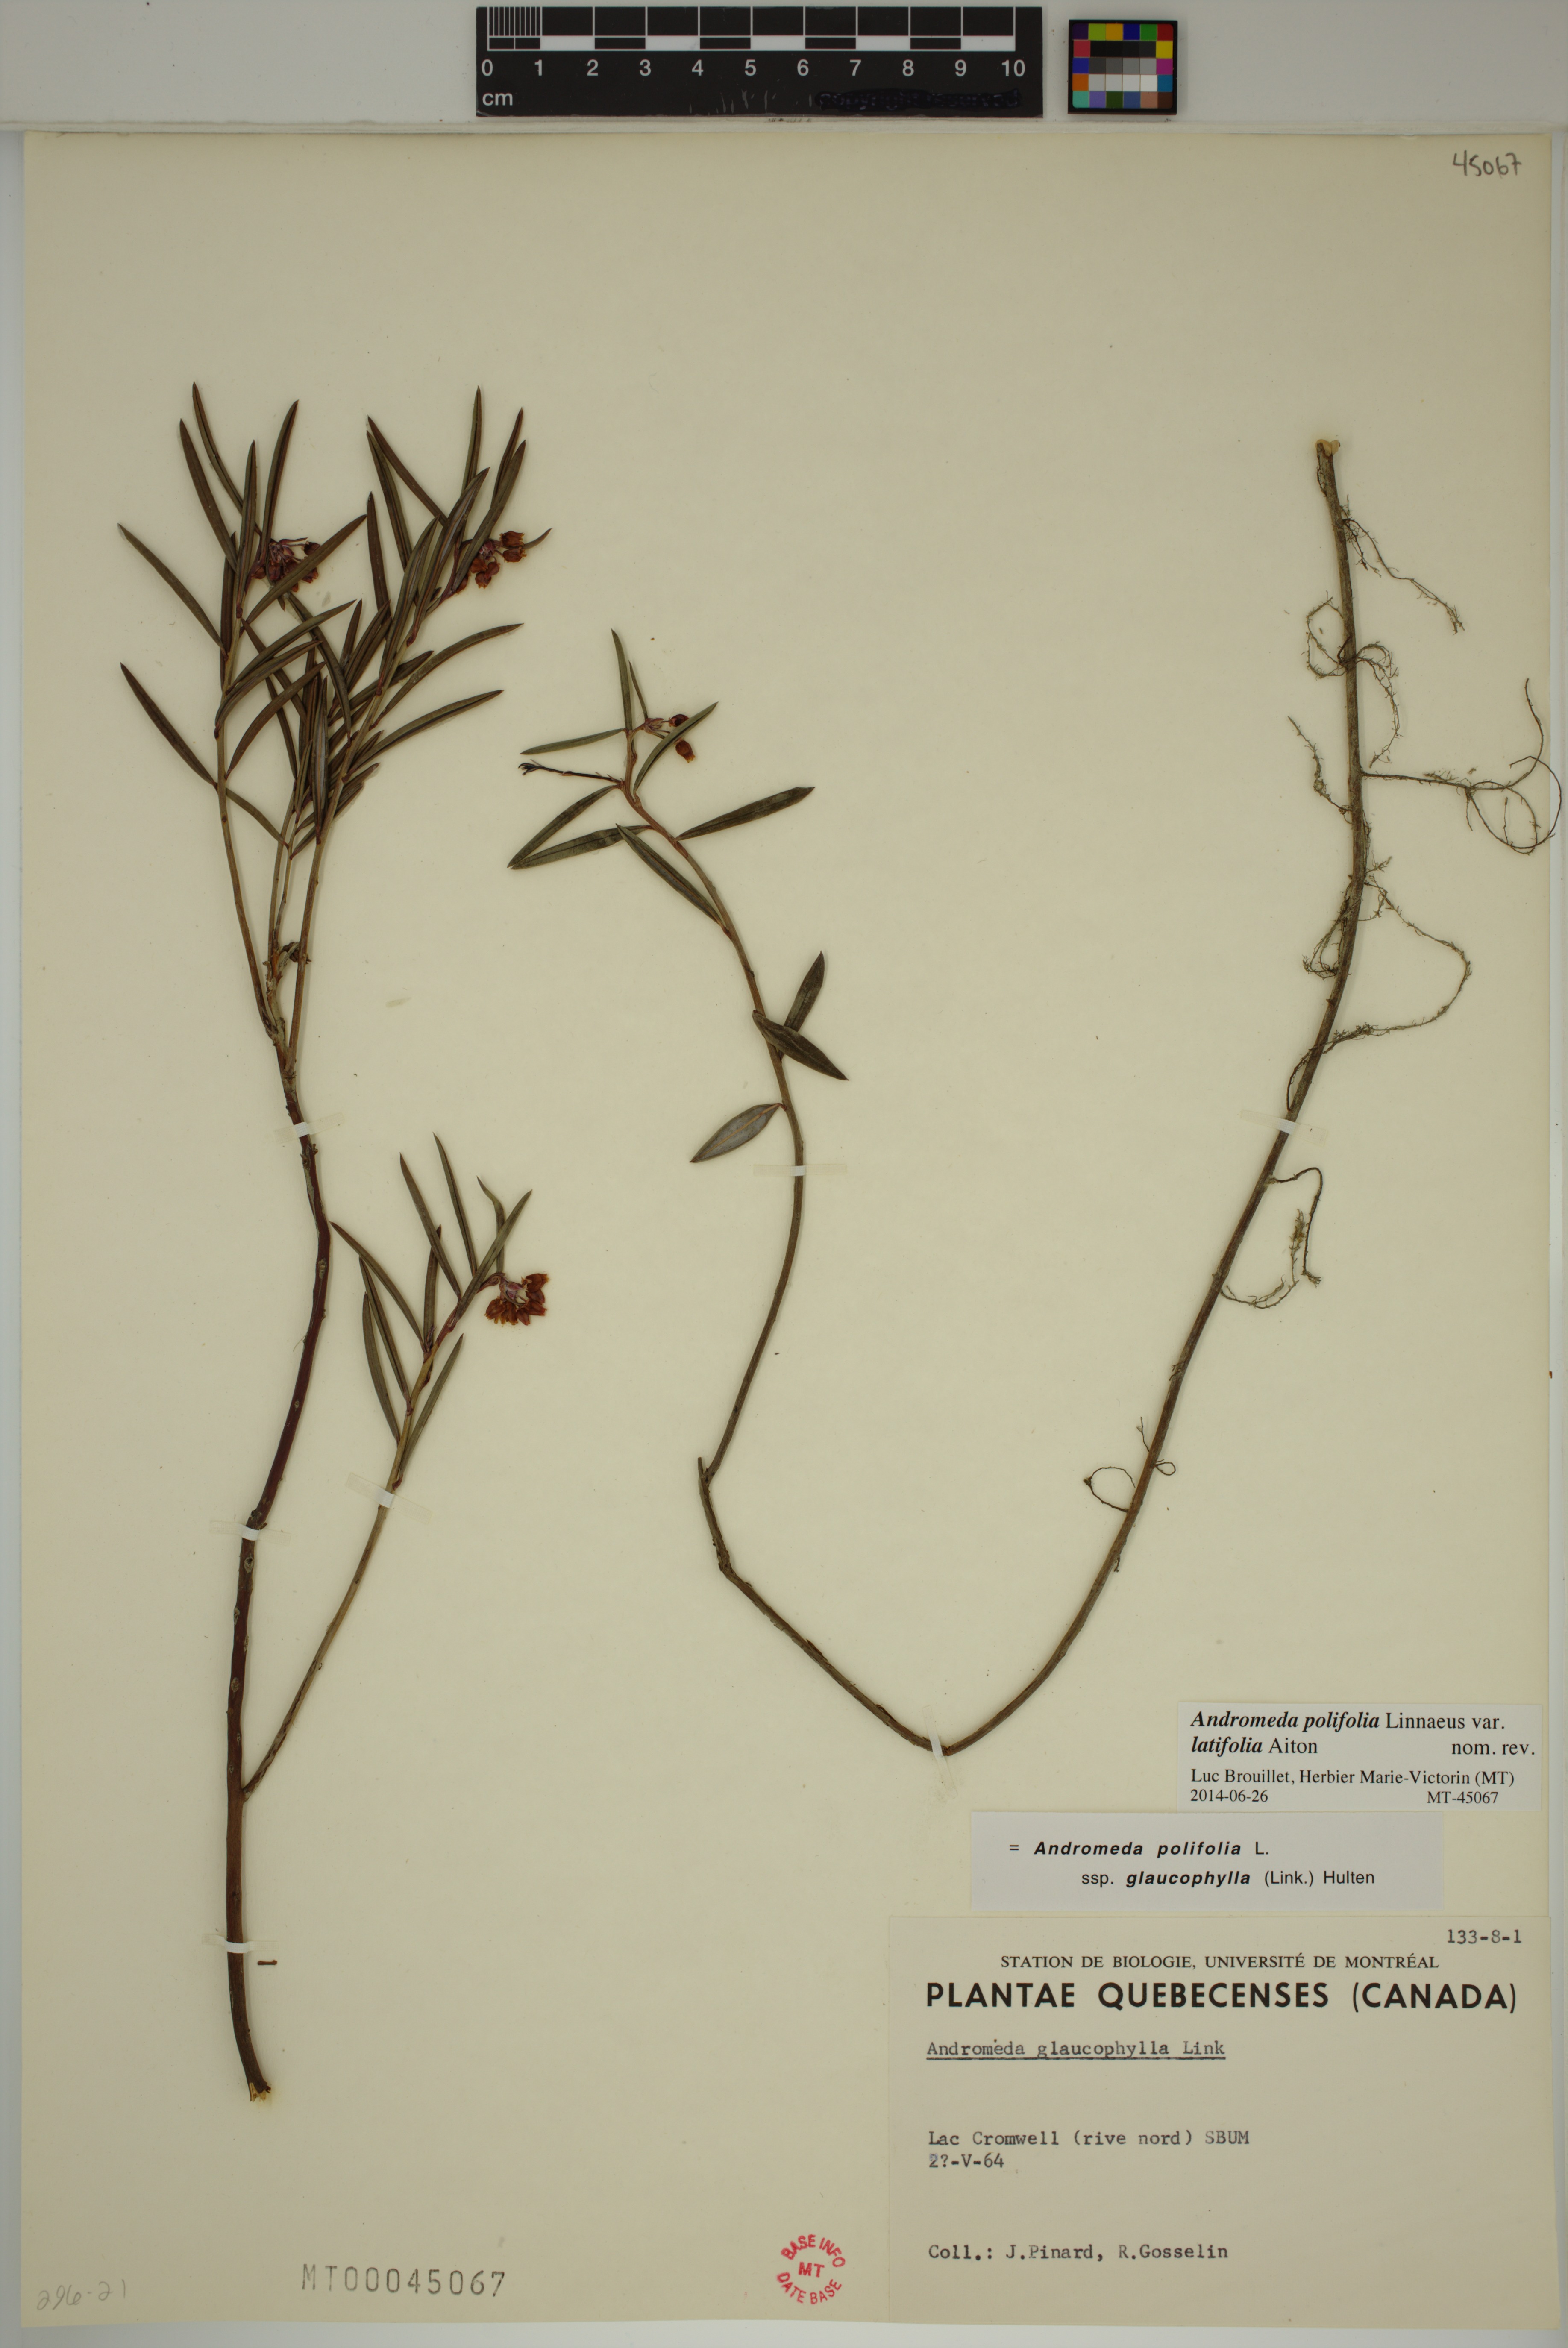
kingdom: Plantae
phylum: Tracheophyta
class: Magnoliopsida
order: Ericales
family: Ericaceae
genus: Andromeda
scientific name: Andromeda polifolia
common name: Bog-rosemary
